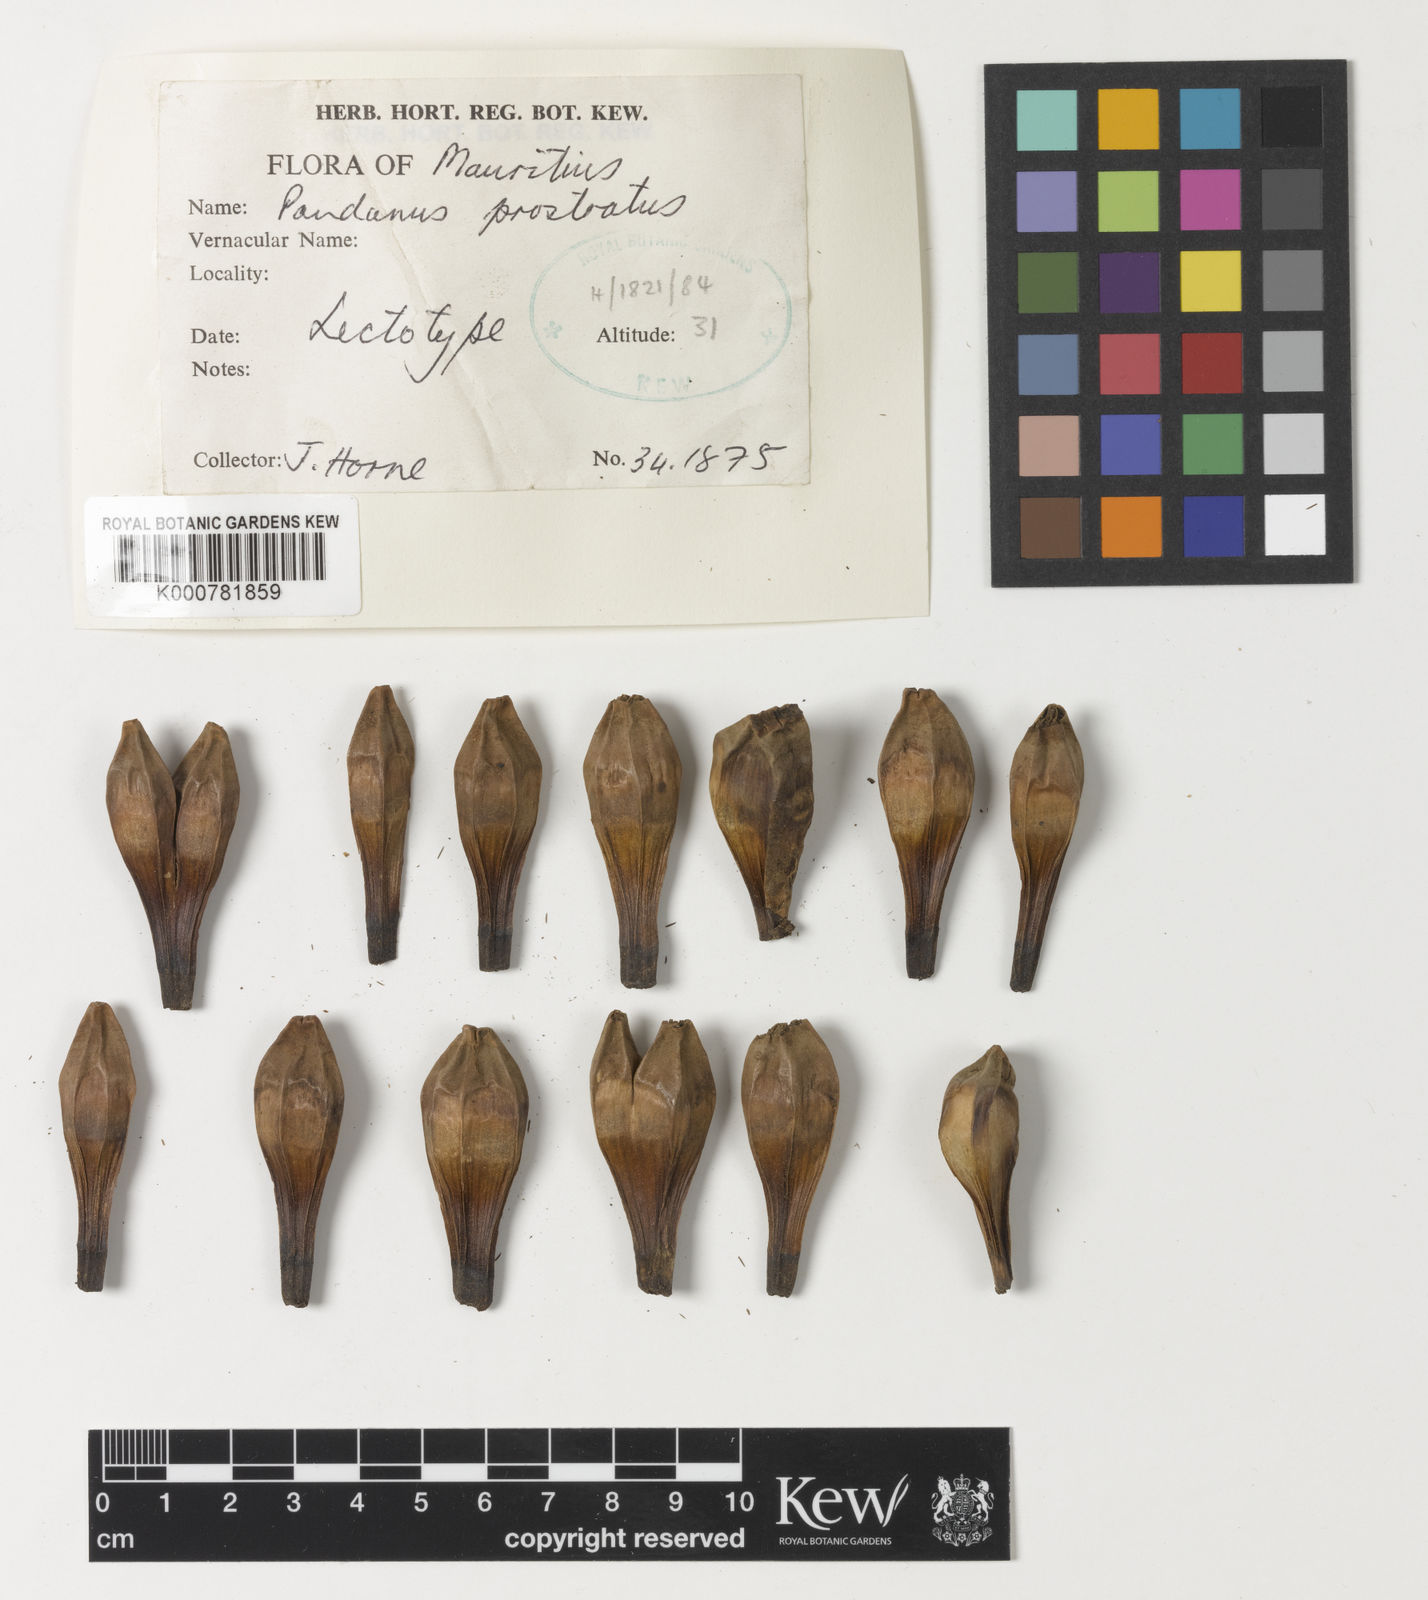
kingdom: Plantae
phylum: Tracheophyta
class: Liliopsida
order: Pandanales
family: Pandanaceae
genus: Pandanus
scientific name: Pandanus microcarpus
